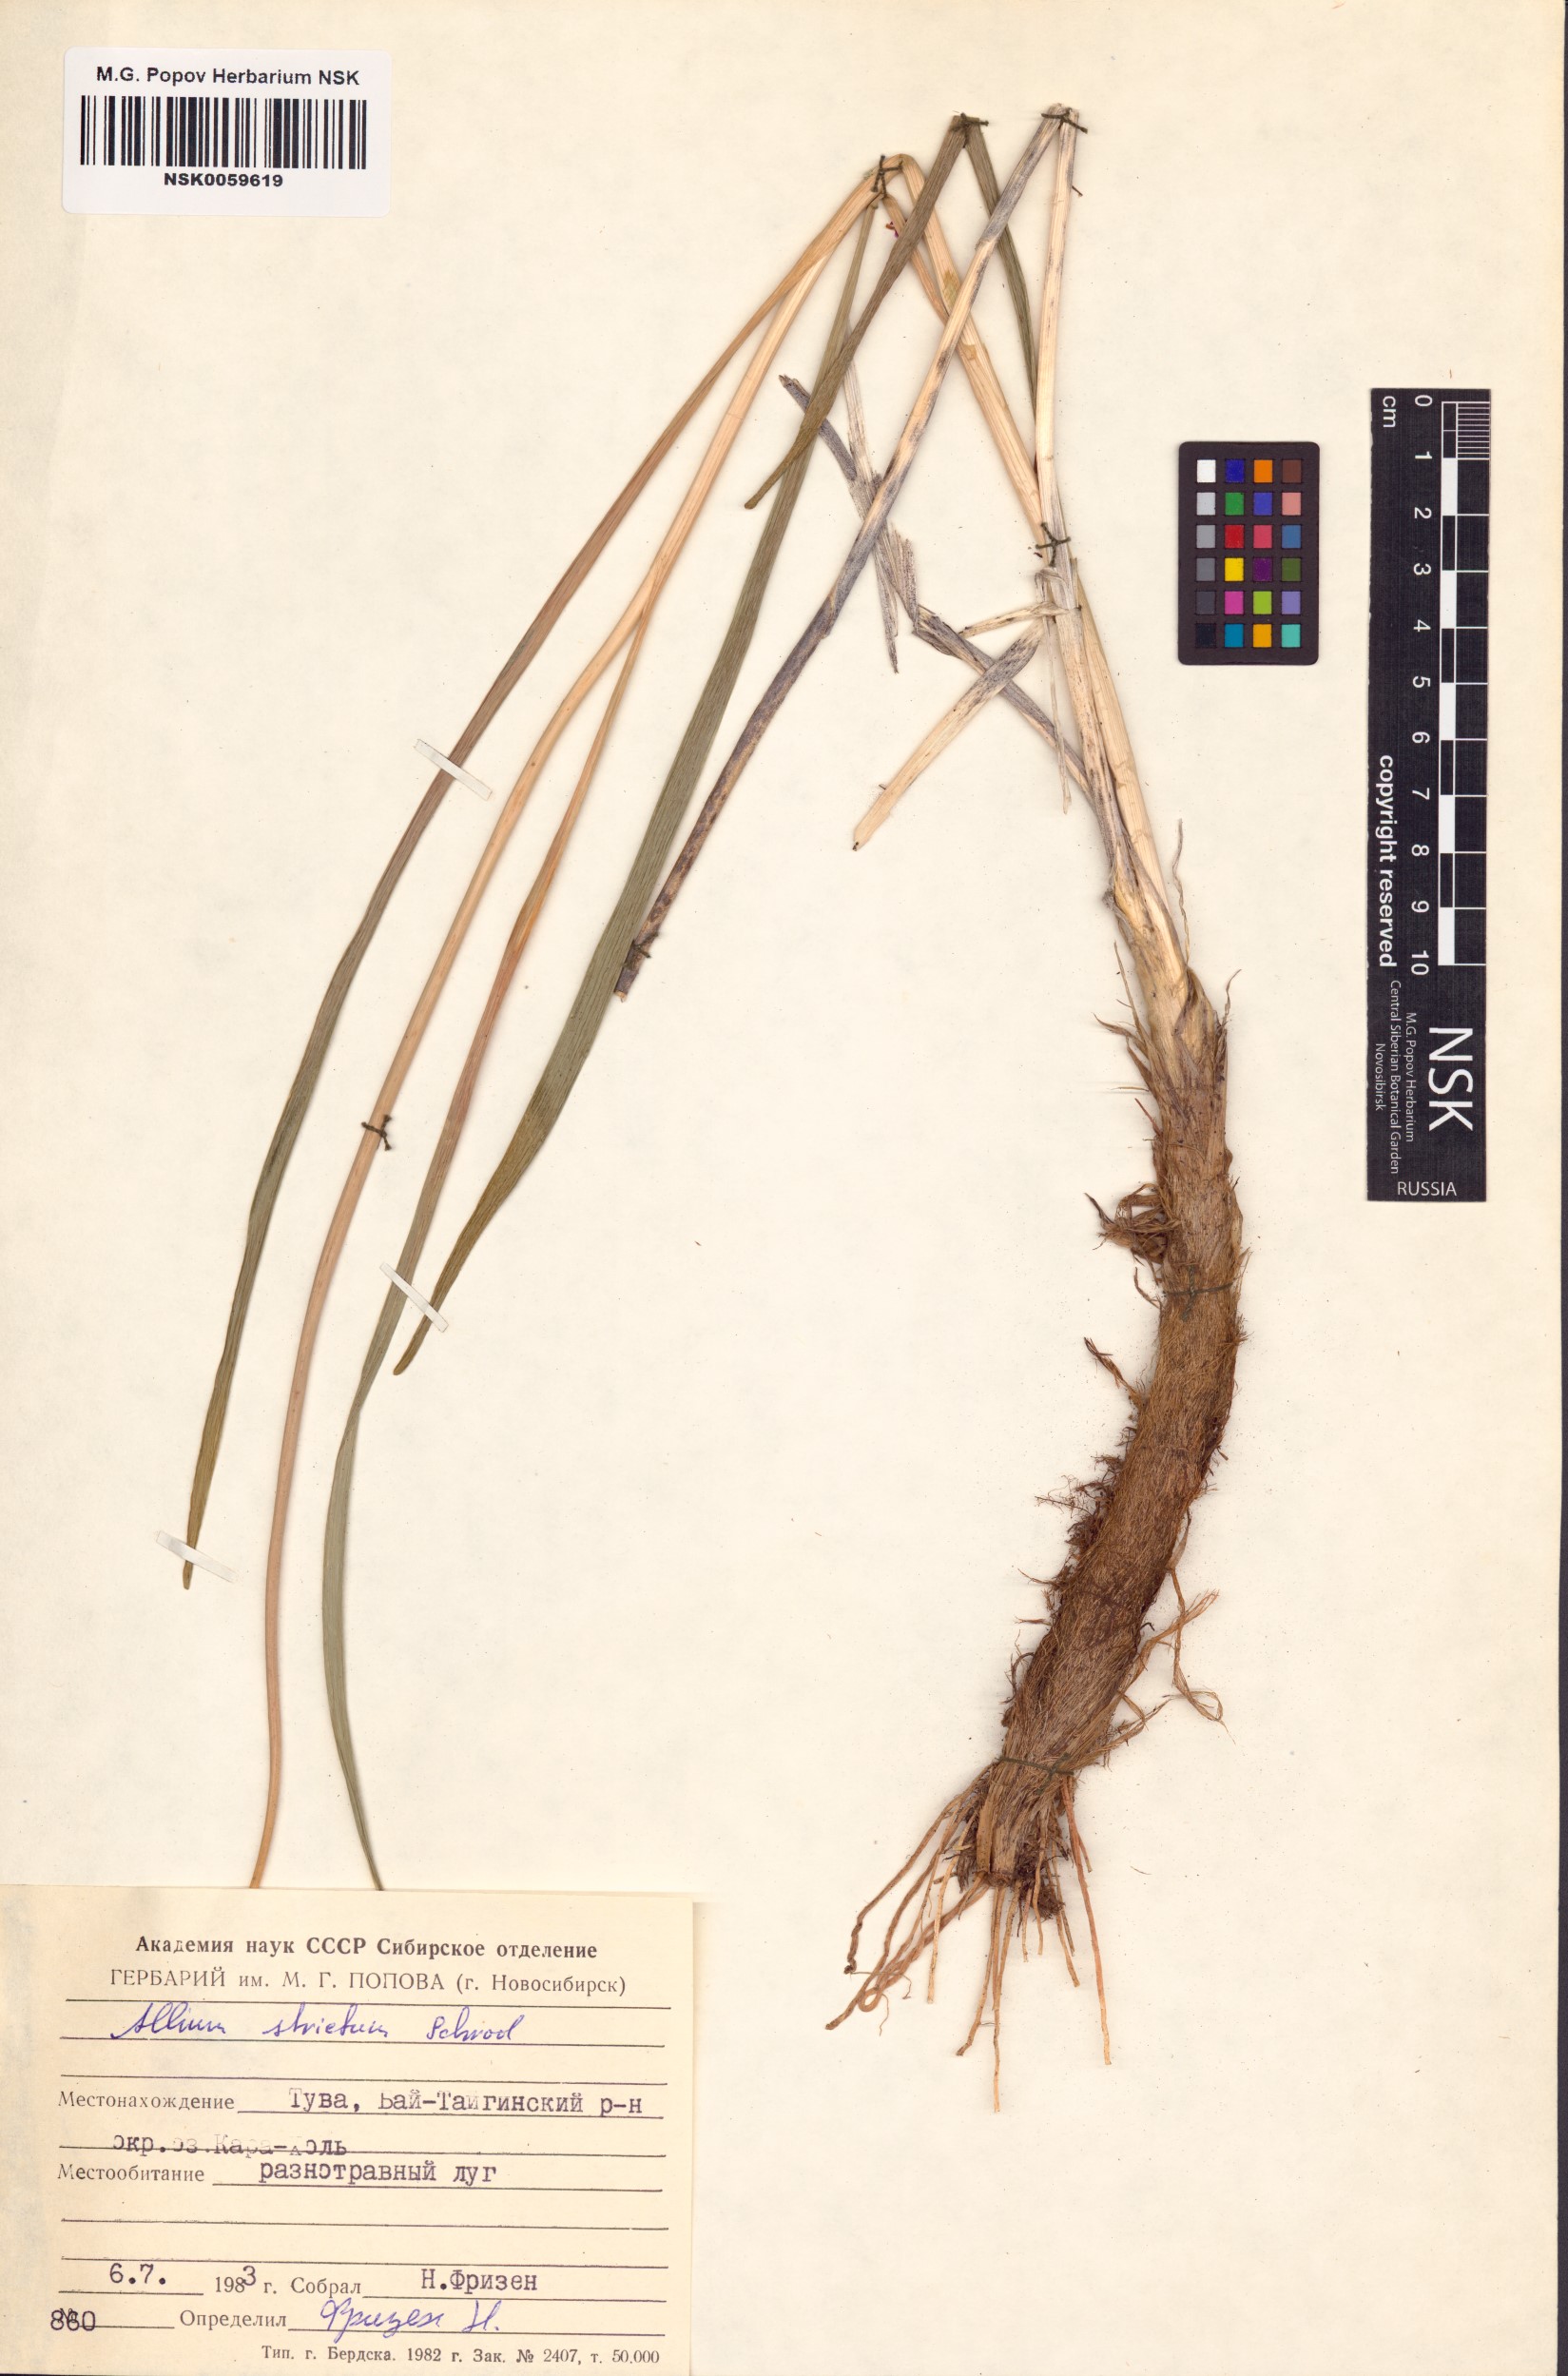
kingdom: Plantae
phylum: Tracheophyta
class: Liliopsida
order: Asparagales
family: Amaryllidaceae
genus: Allium
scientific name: Allium strictum
